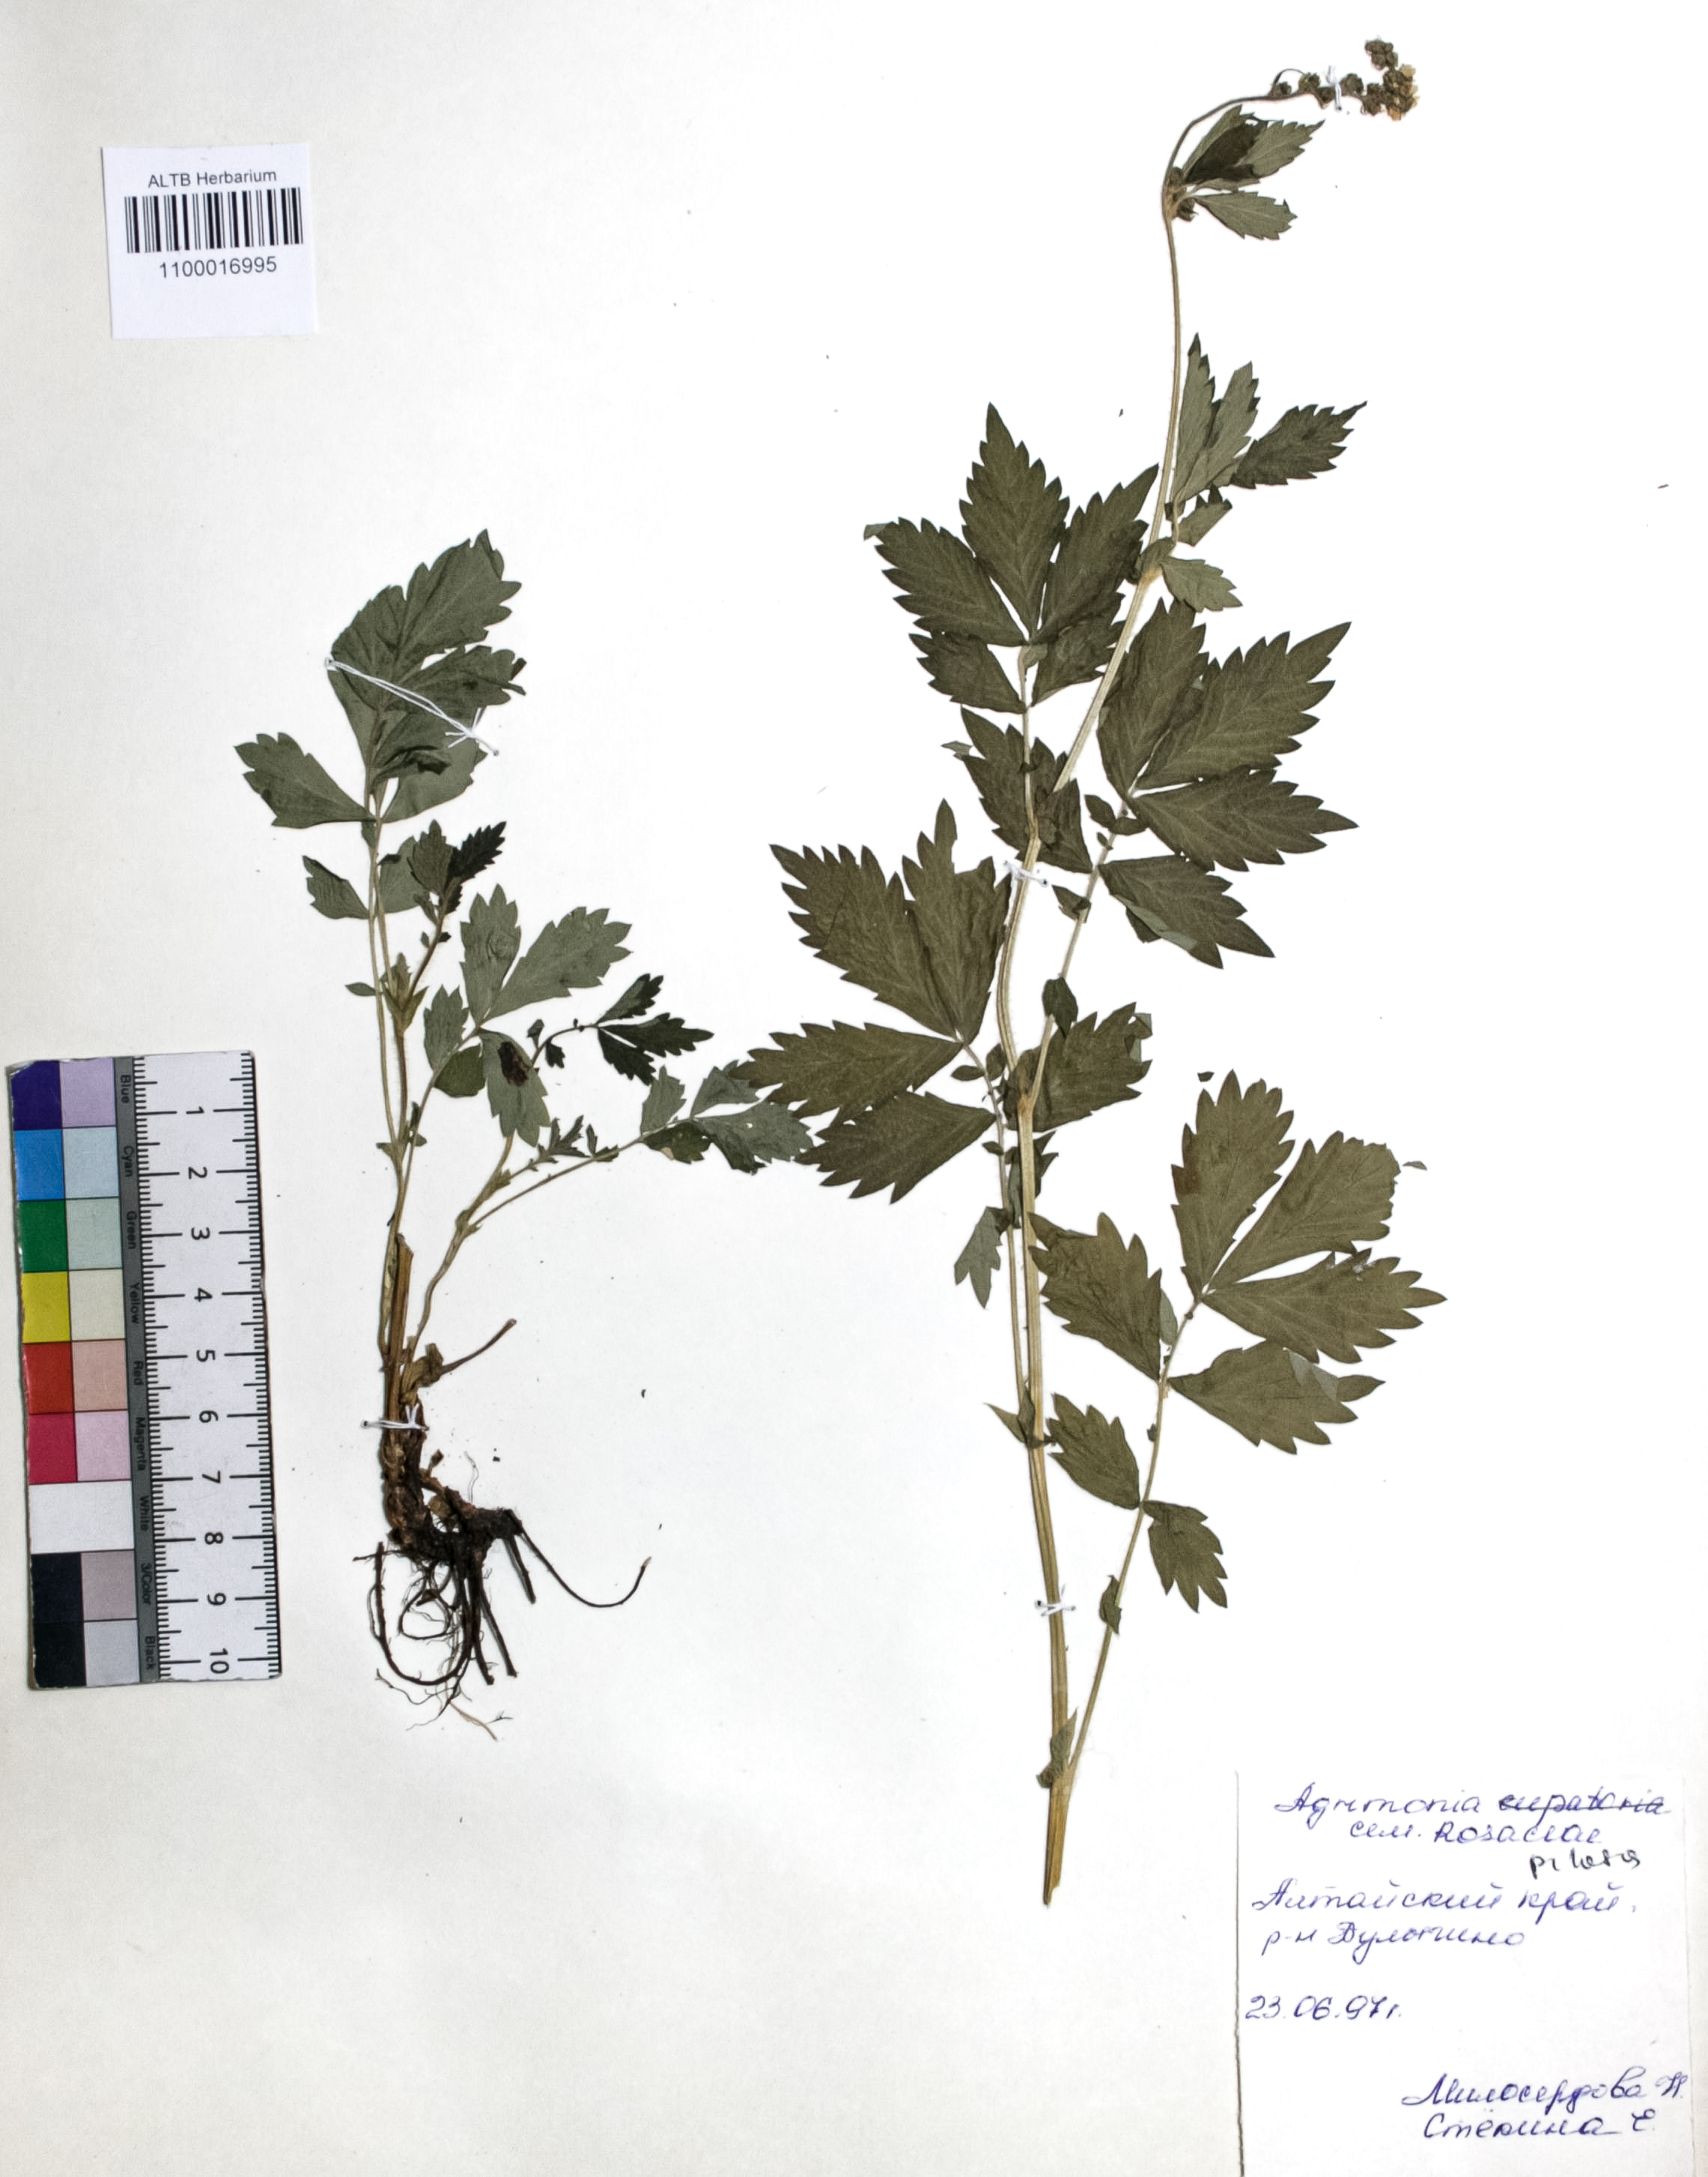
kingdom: Plantae
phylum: Tracheophyta
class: Magnoliopsida
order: Rosales
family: Rosaceae
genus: Agrimonia
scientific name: Agrimonia eupatoria
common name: Agrimony
